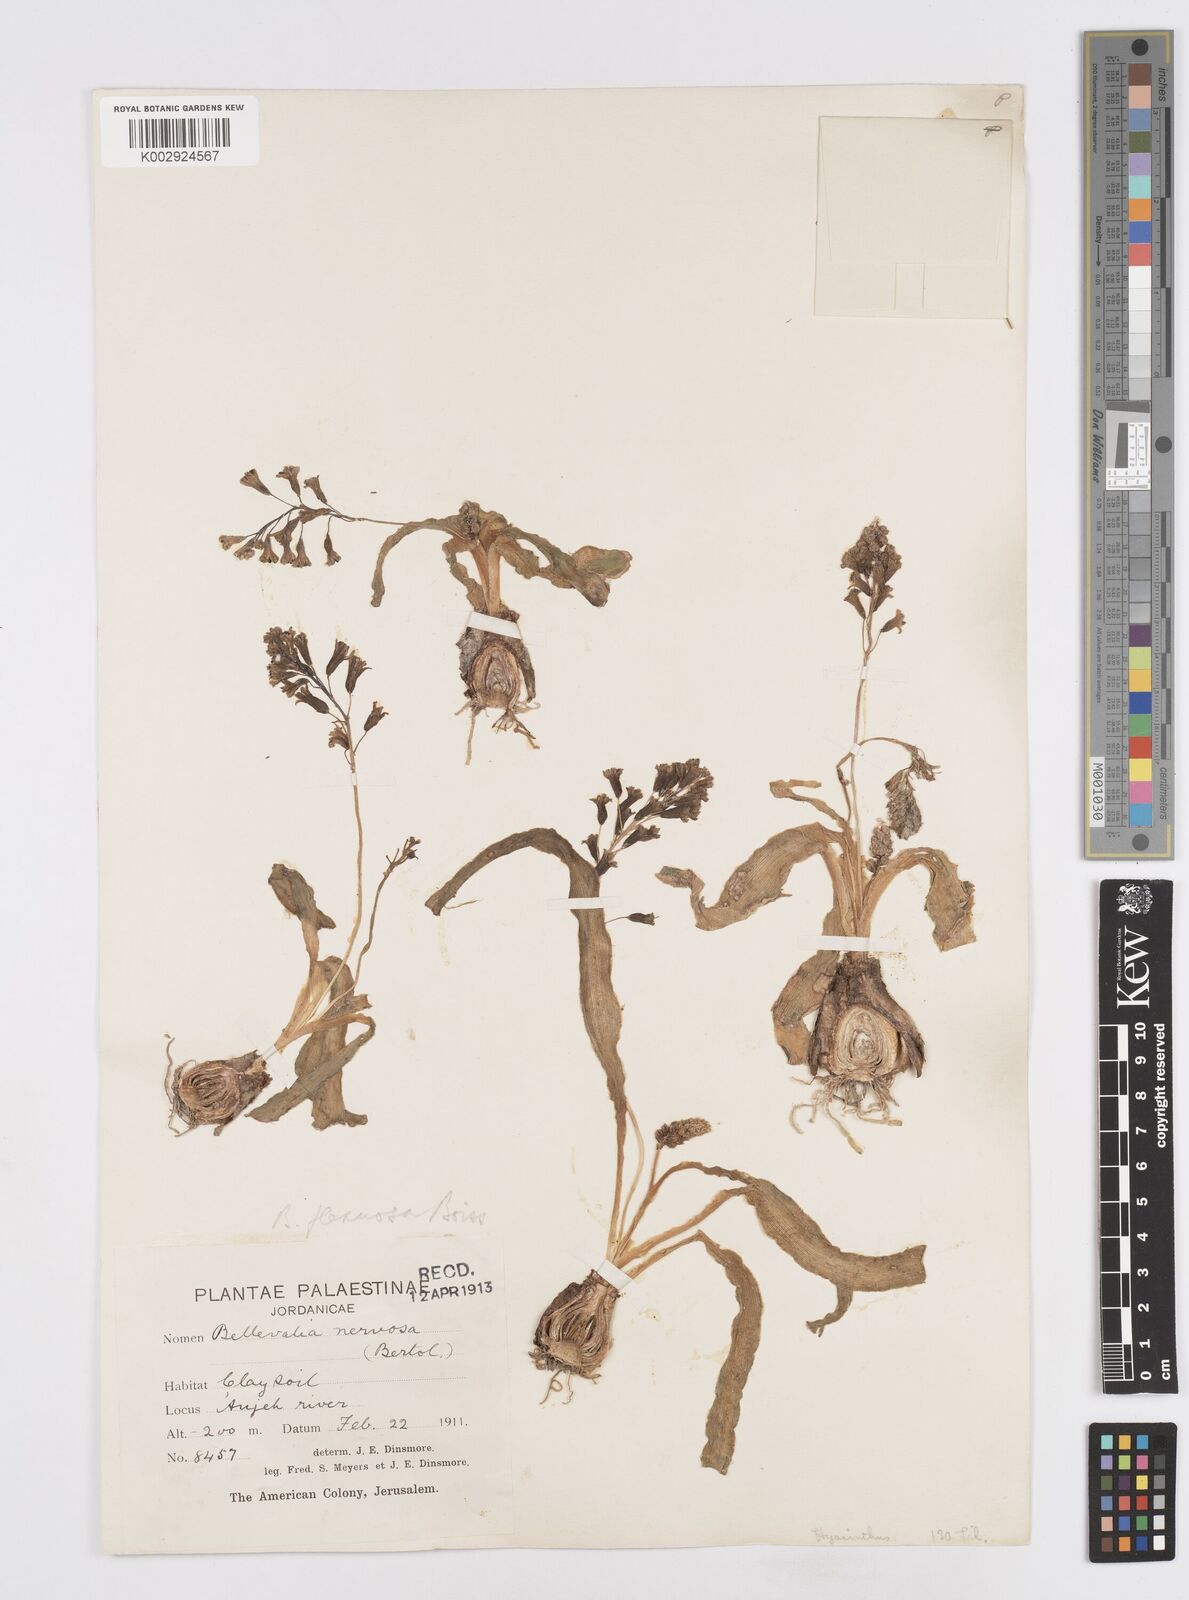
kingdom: Plantae
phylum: Tracheophyta
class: Liliopsida
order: Asparagales
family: Asparagaceae
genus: Bellevalia
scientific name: Bellevalia flexuosa
